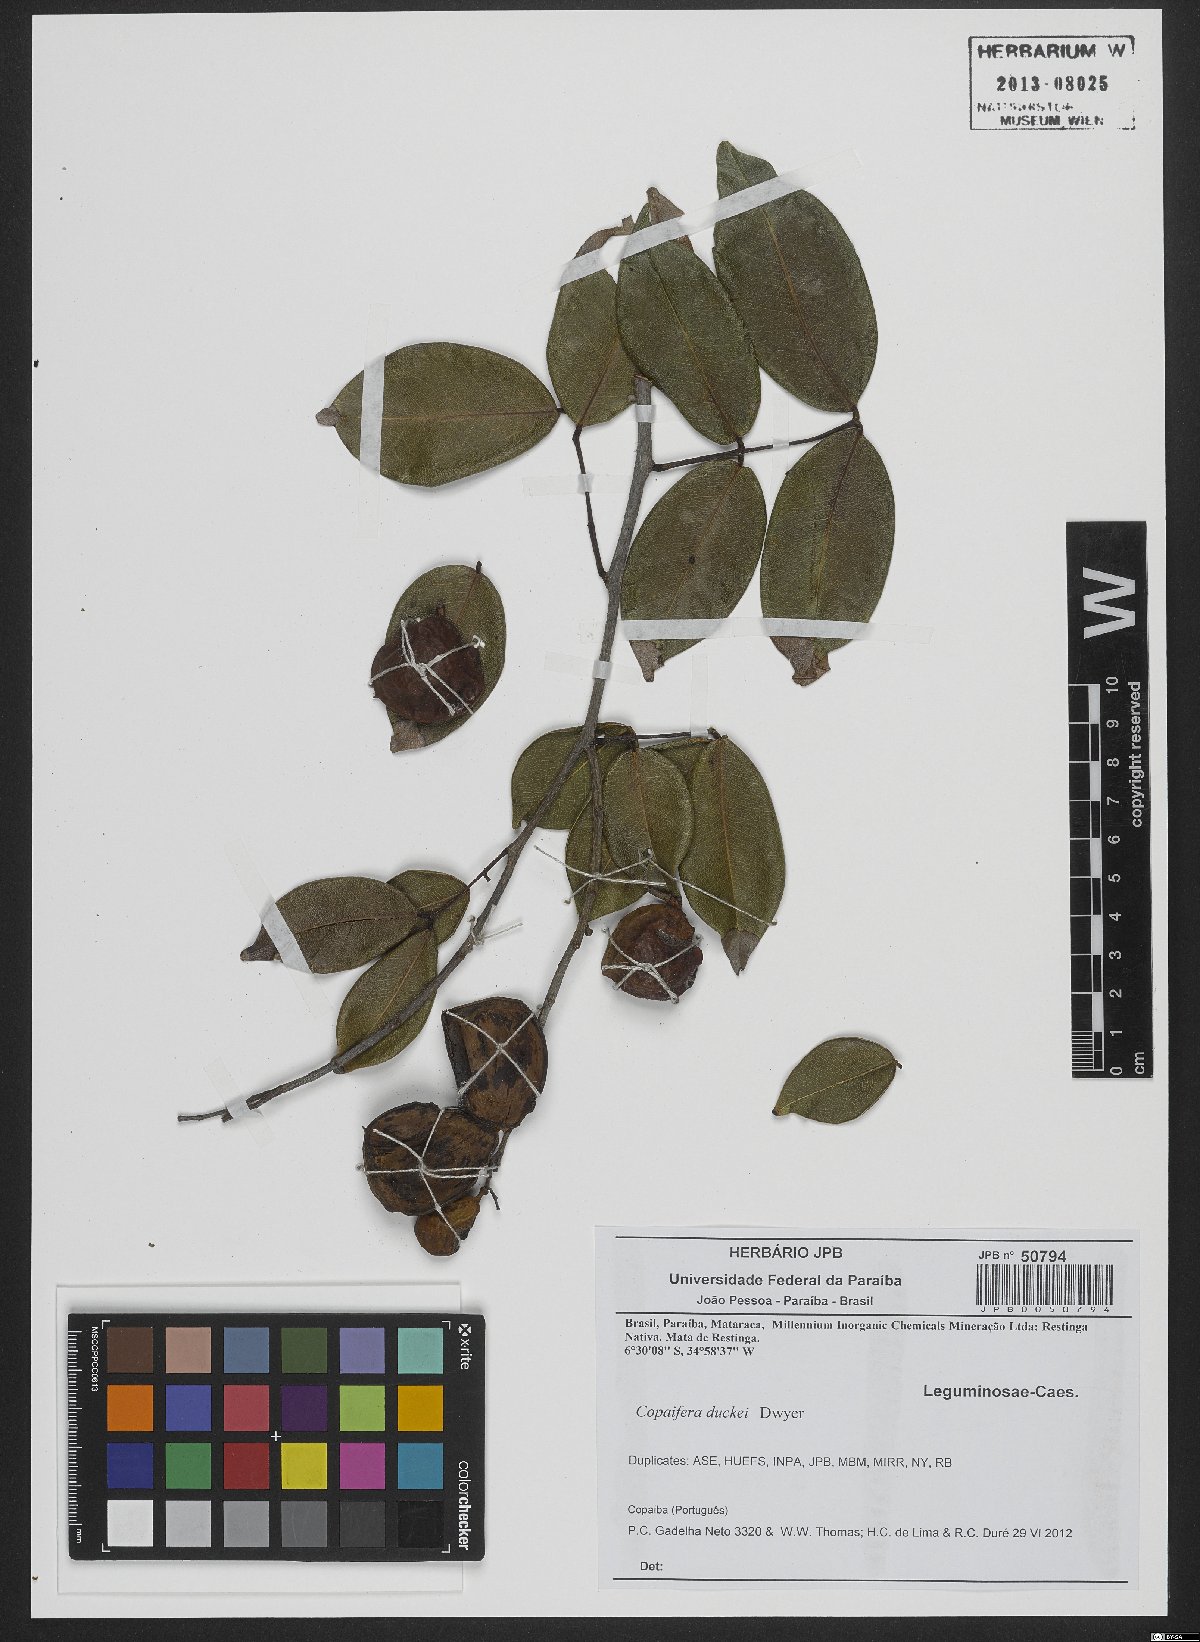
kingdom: Plantae
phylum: Tracheophyta
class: Magnoliopsida
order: Fabales
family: Fabaceae
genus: Copaifera
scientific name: Copaifera duckei
